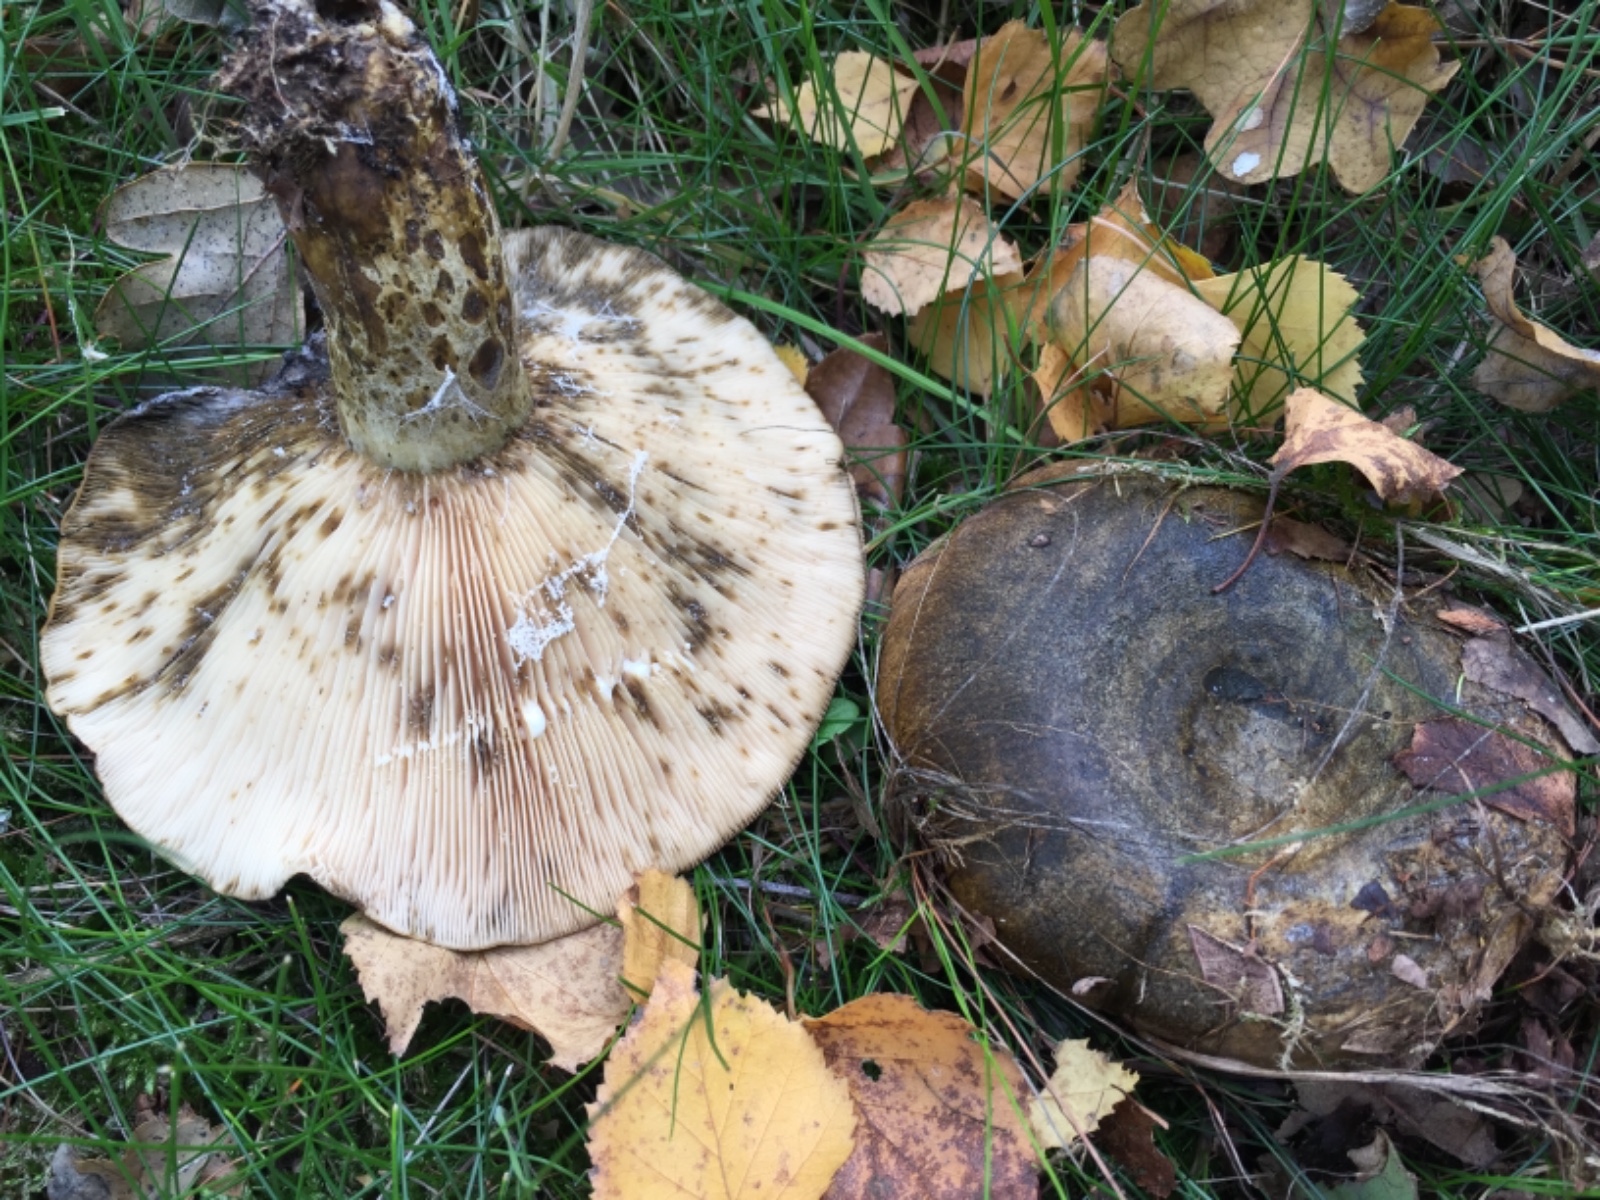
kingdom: Fungi
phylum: Basidiomycota
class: Agaricomycetes
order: Russulales
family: Russulaceae
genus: Lactarius
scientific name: Lactarius necator
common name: manddraber-mælkehat
